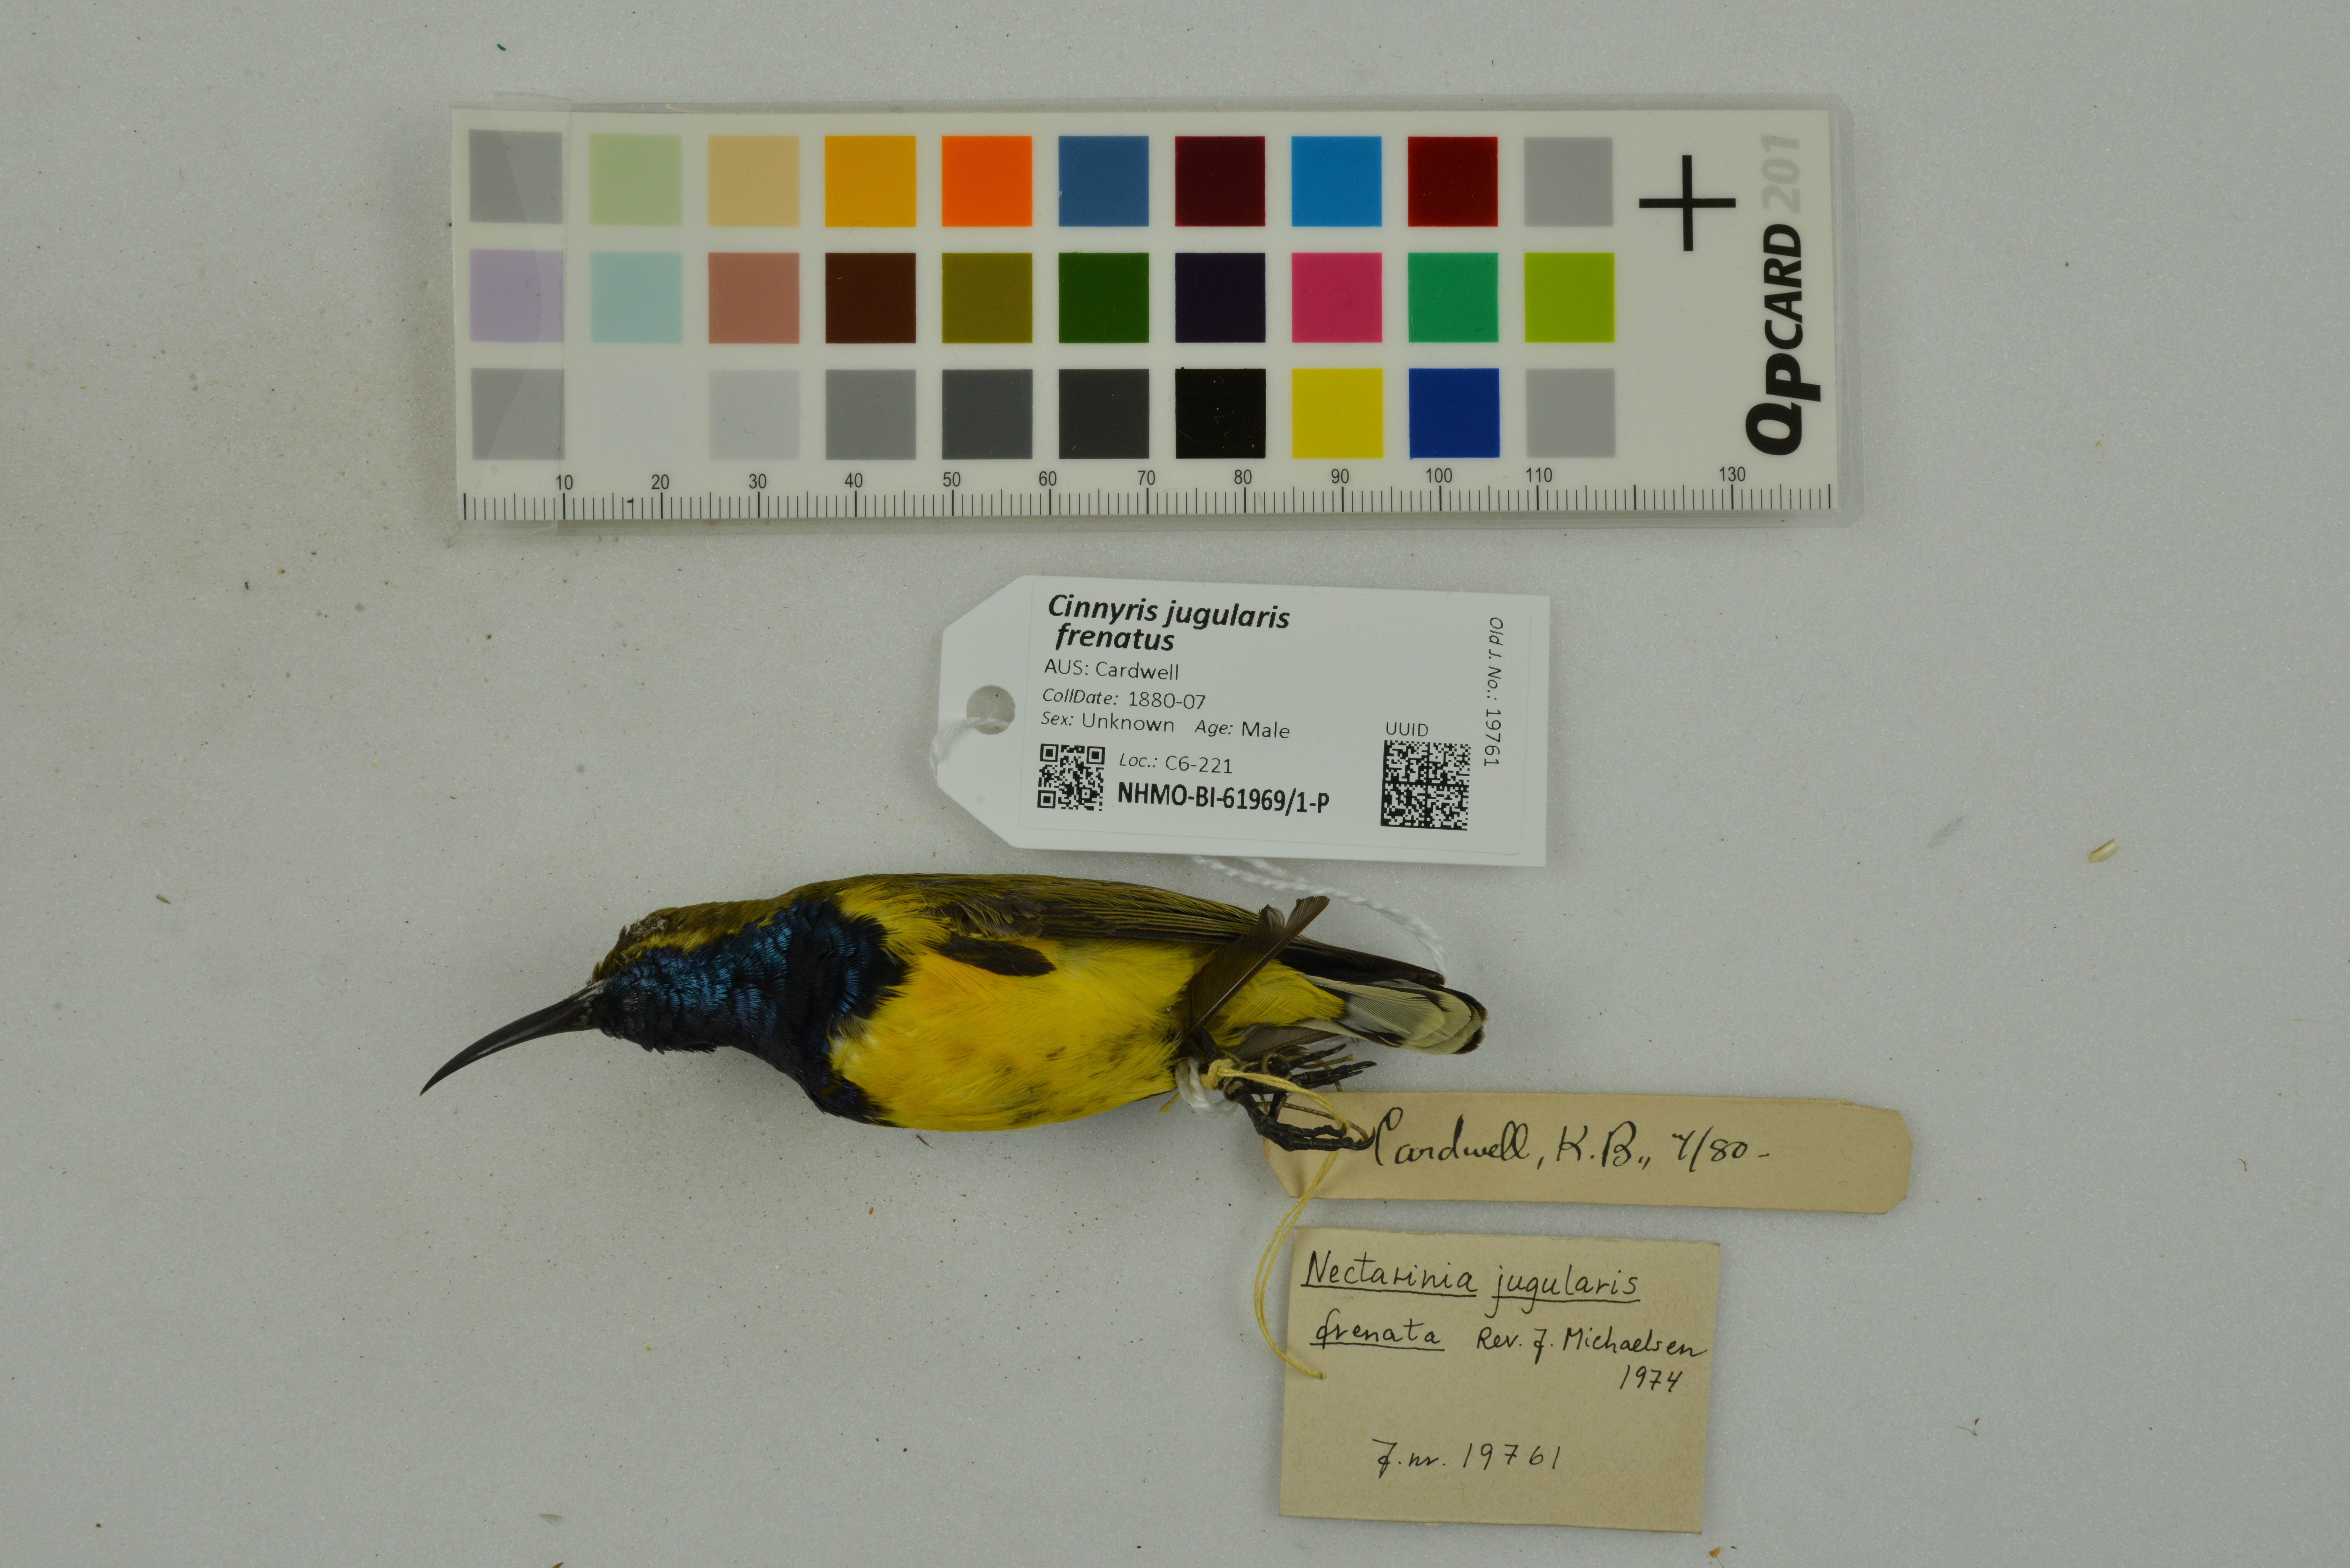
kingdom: Animalia
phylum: Chordata
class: Aves
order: Passeriformes
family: Nectariniidae
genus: Cinnyris
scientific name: Cinnyris jugularis
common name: Olive-backed sunbird
